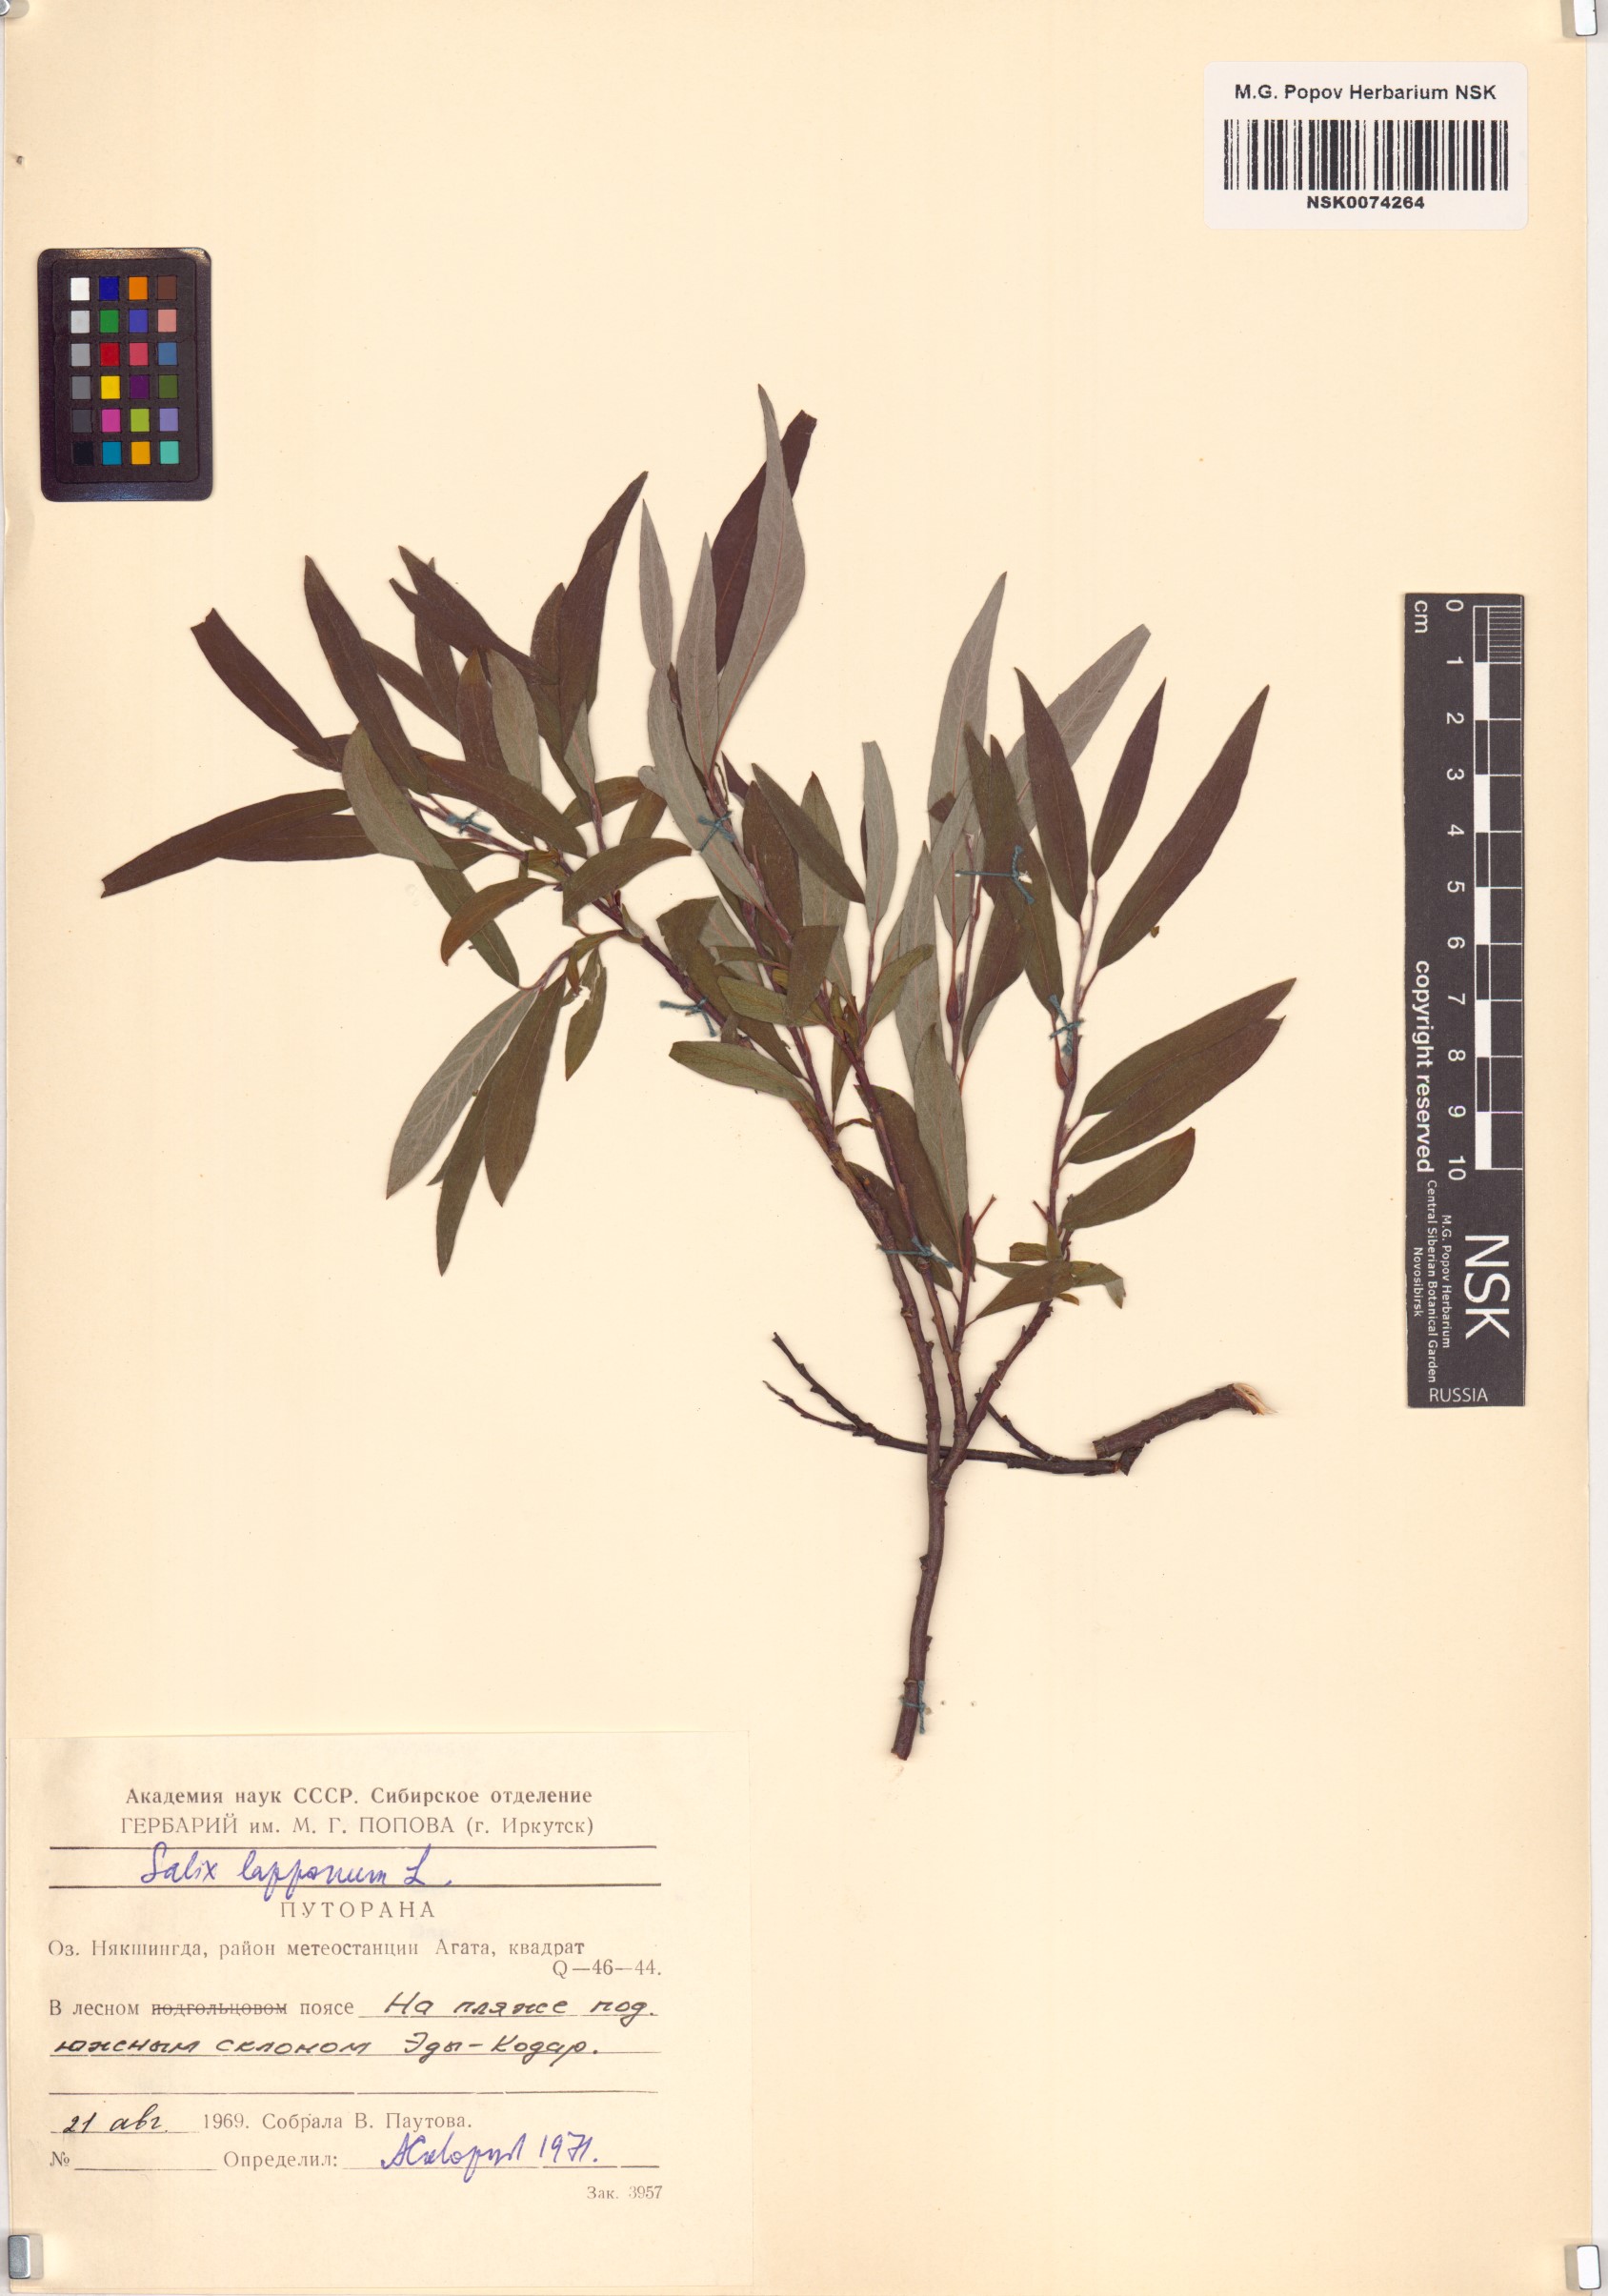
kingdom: Plantae
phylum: Tracheophyta
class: Magnoliopsida
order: Malpighiales
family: Salicaceae
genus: Salix
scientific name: Salix lapponum
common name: Downy willow
